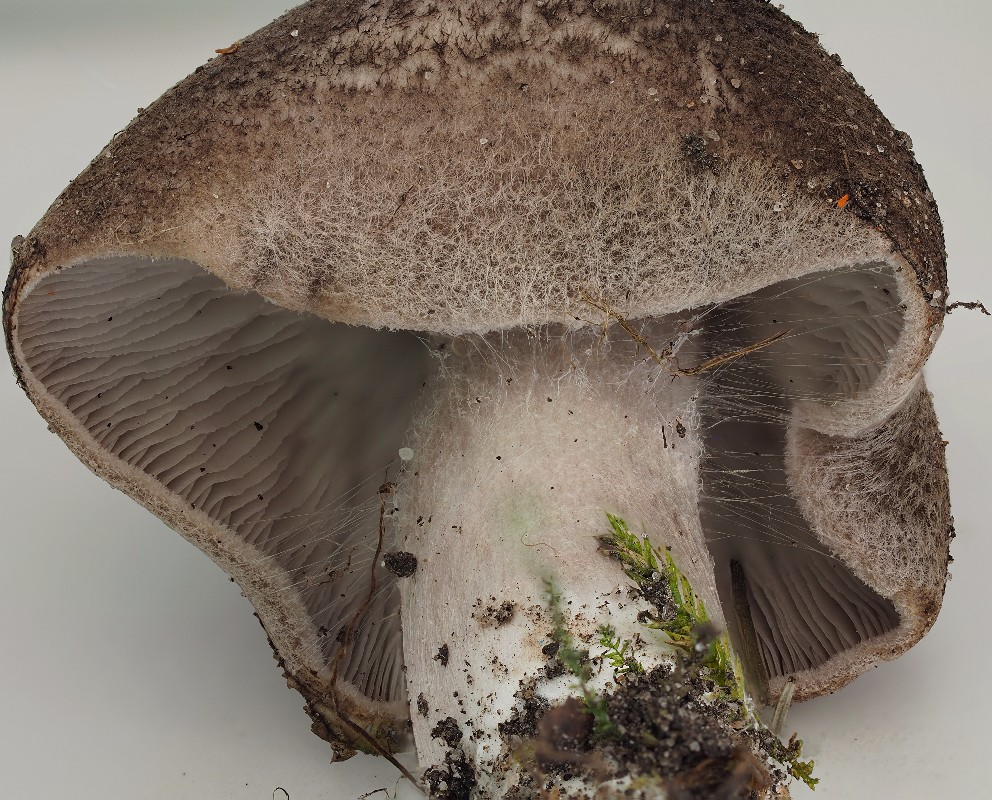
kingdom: Fungi
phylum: Basidiomycota
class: Agaricomycetes
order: Agaricales
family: Tricholomataceae
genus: Tricholoma
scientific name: Tricholoma scalpturatum
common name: gulplettet ridderhat
